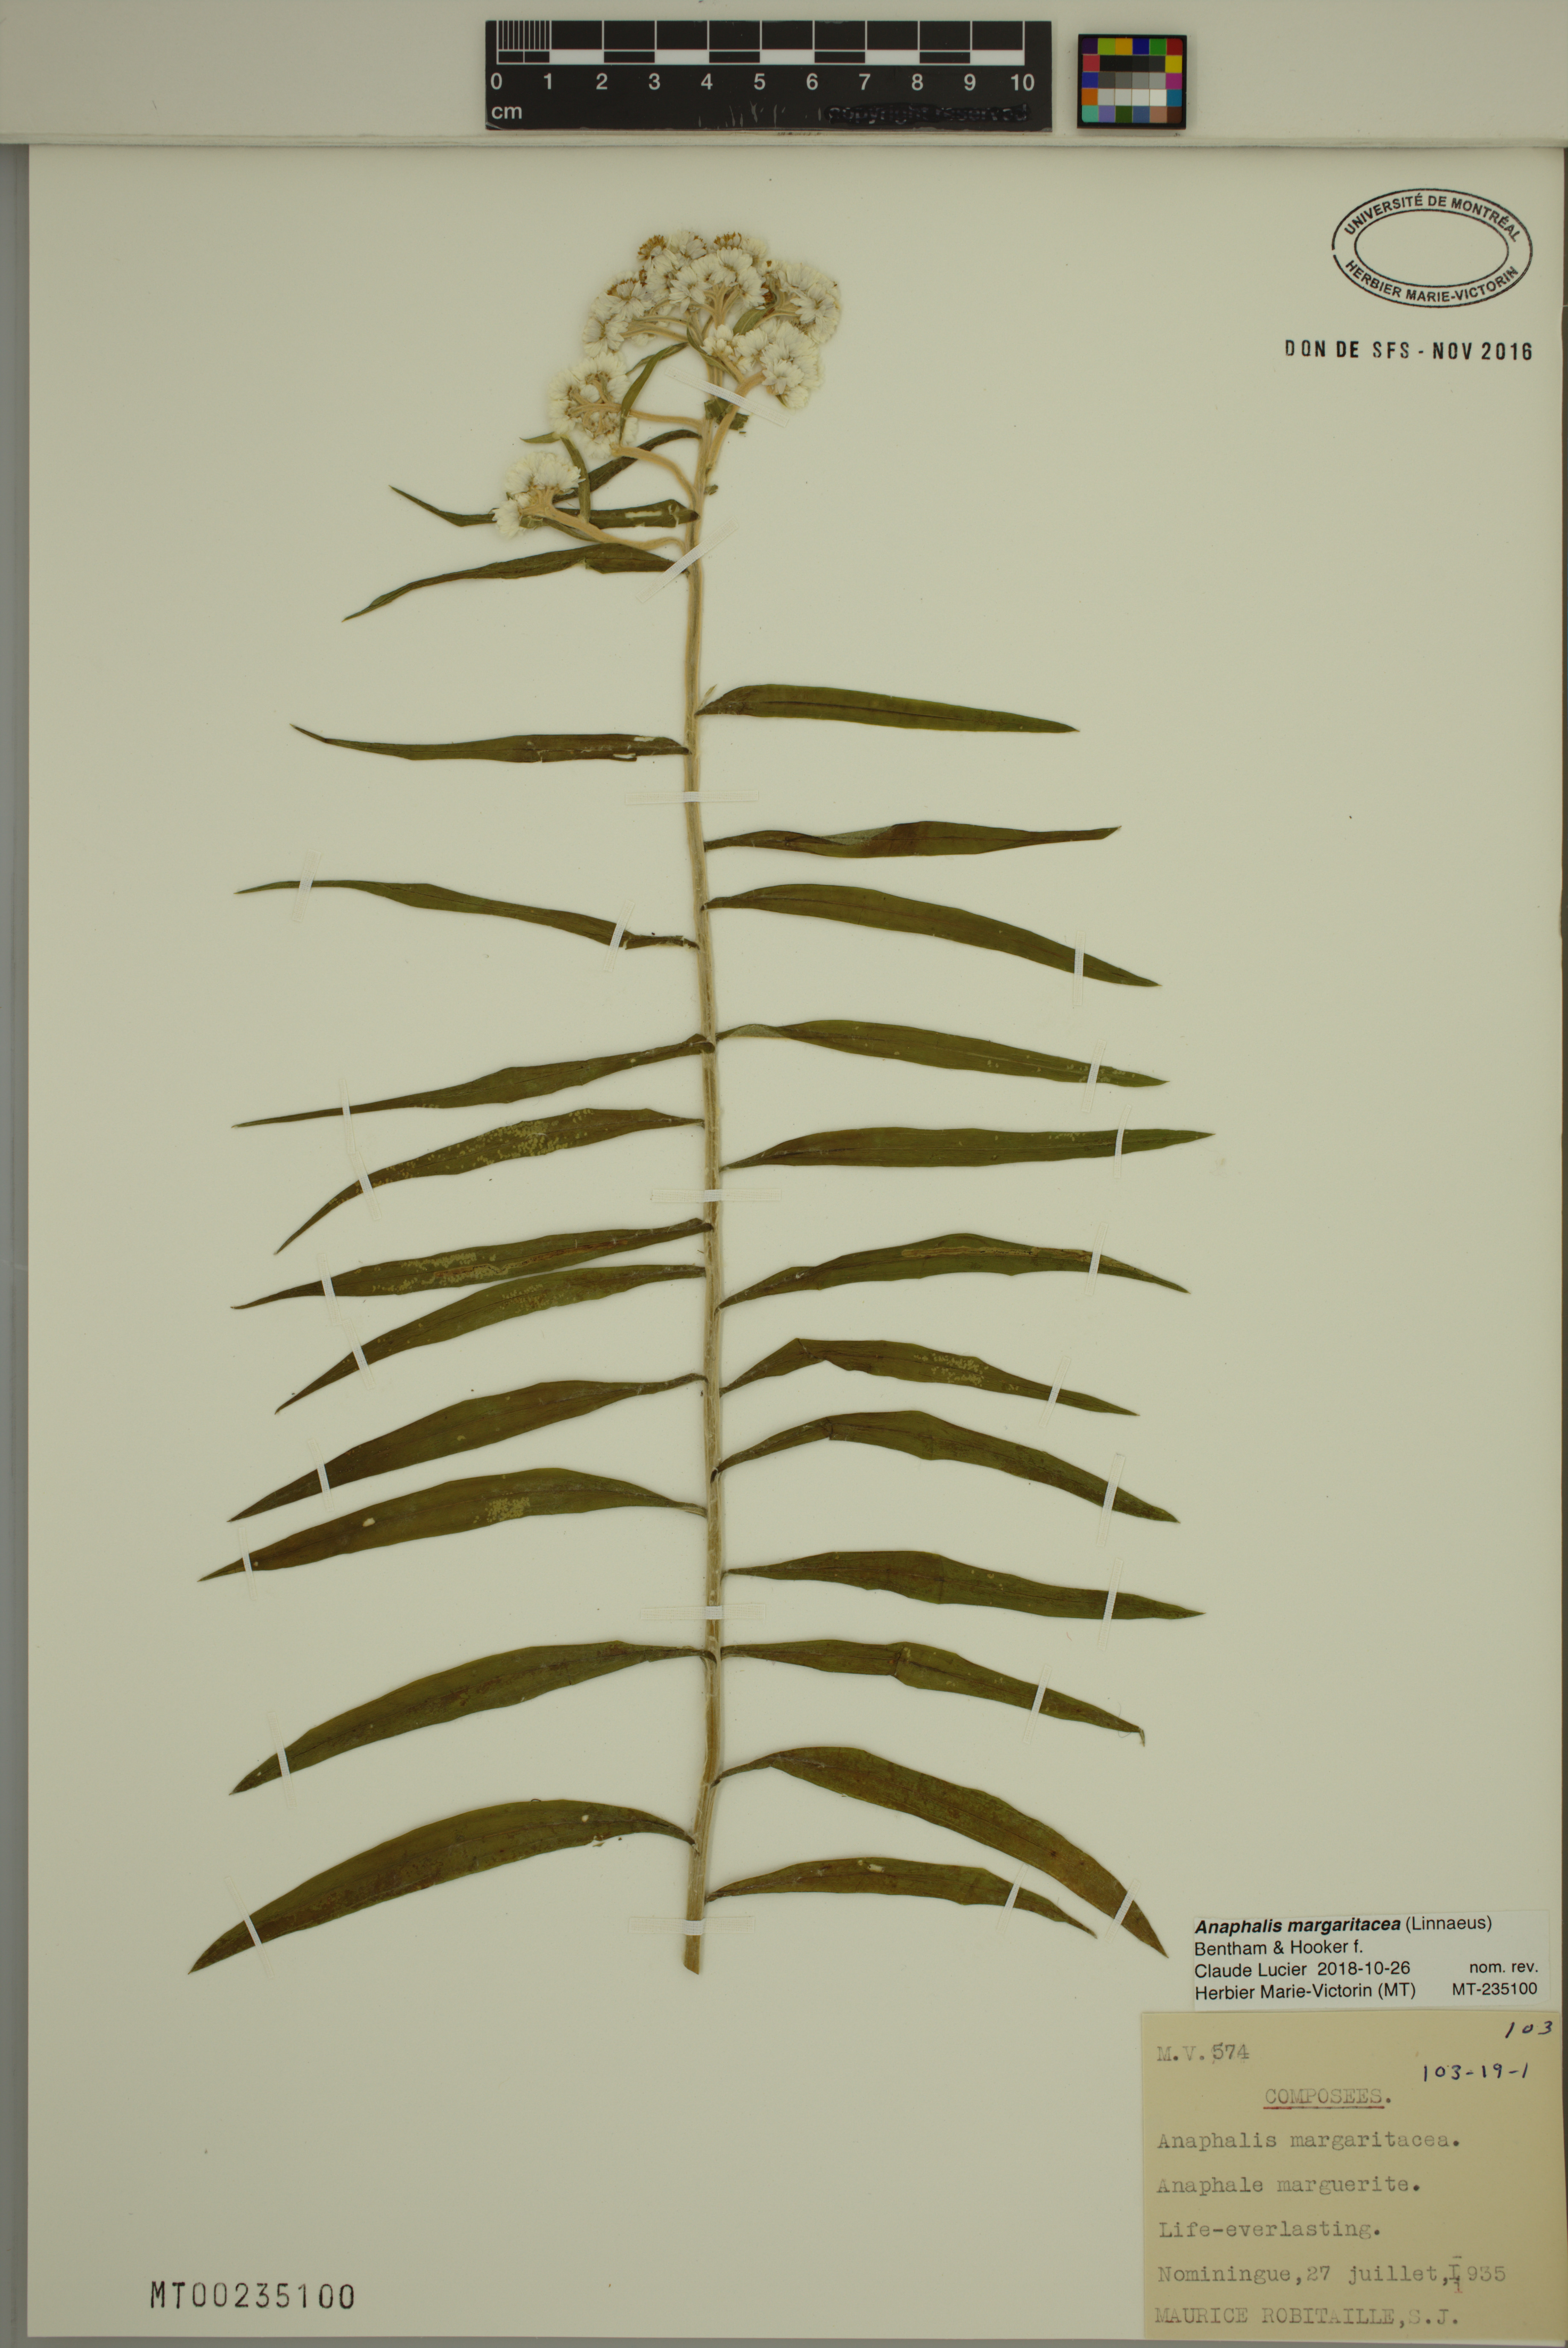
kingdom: Plantae
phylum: Tracheophyta
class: Magnoliopsida
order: Asterales
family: Asteraceae
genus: Anaphalis
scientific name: Anaphalis margaritacea
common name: Pearly everlasting
